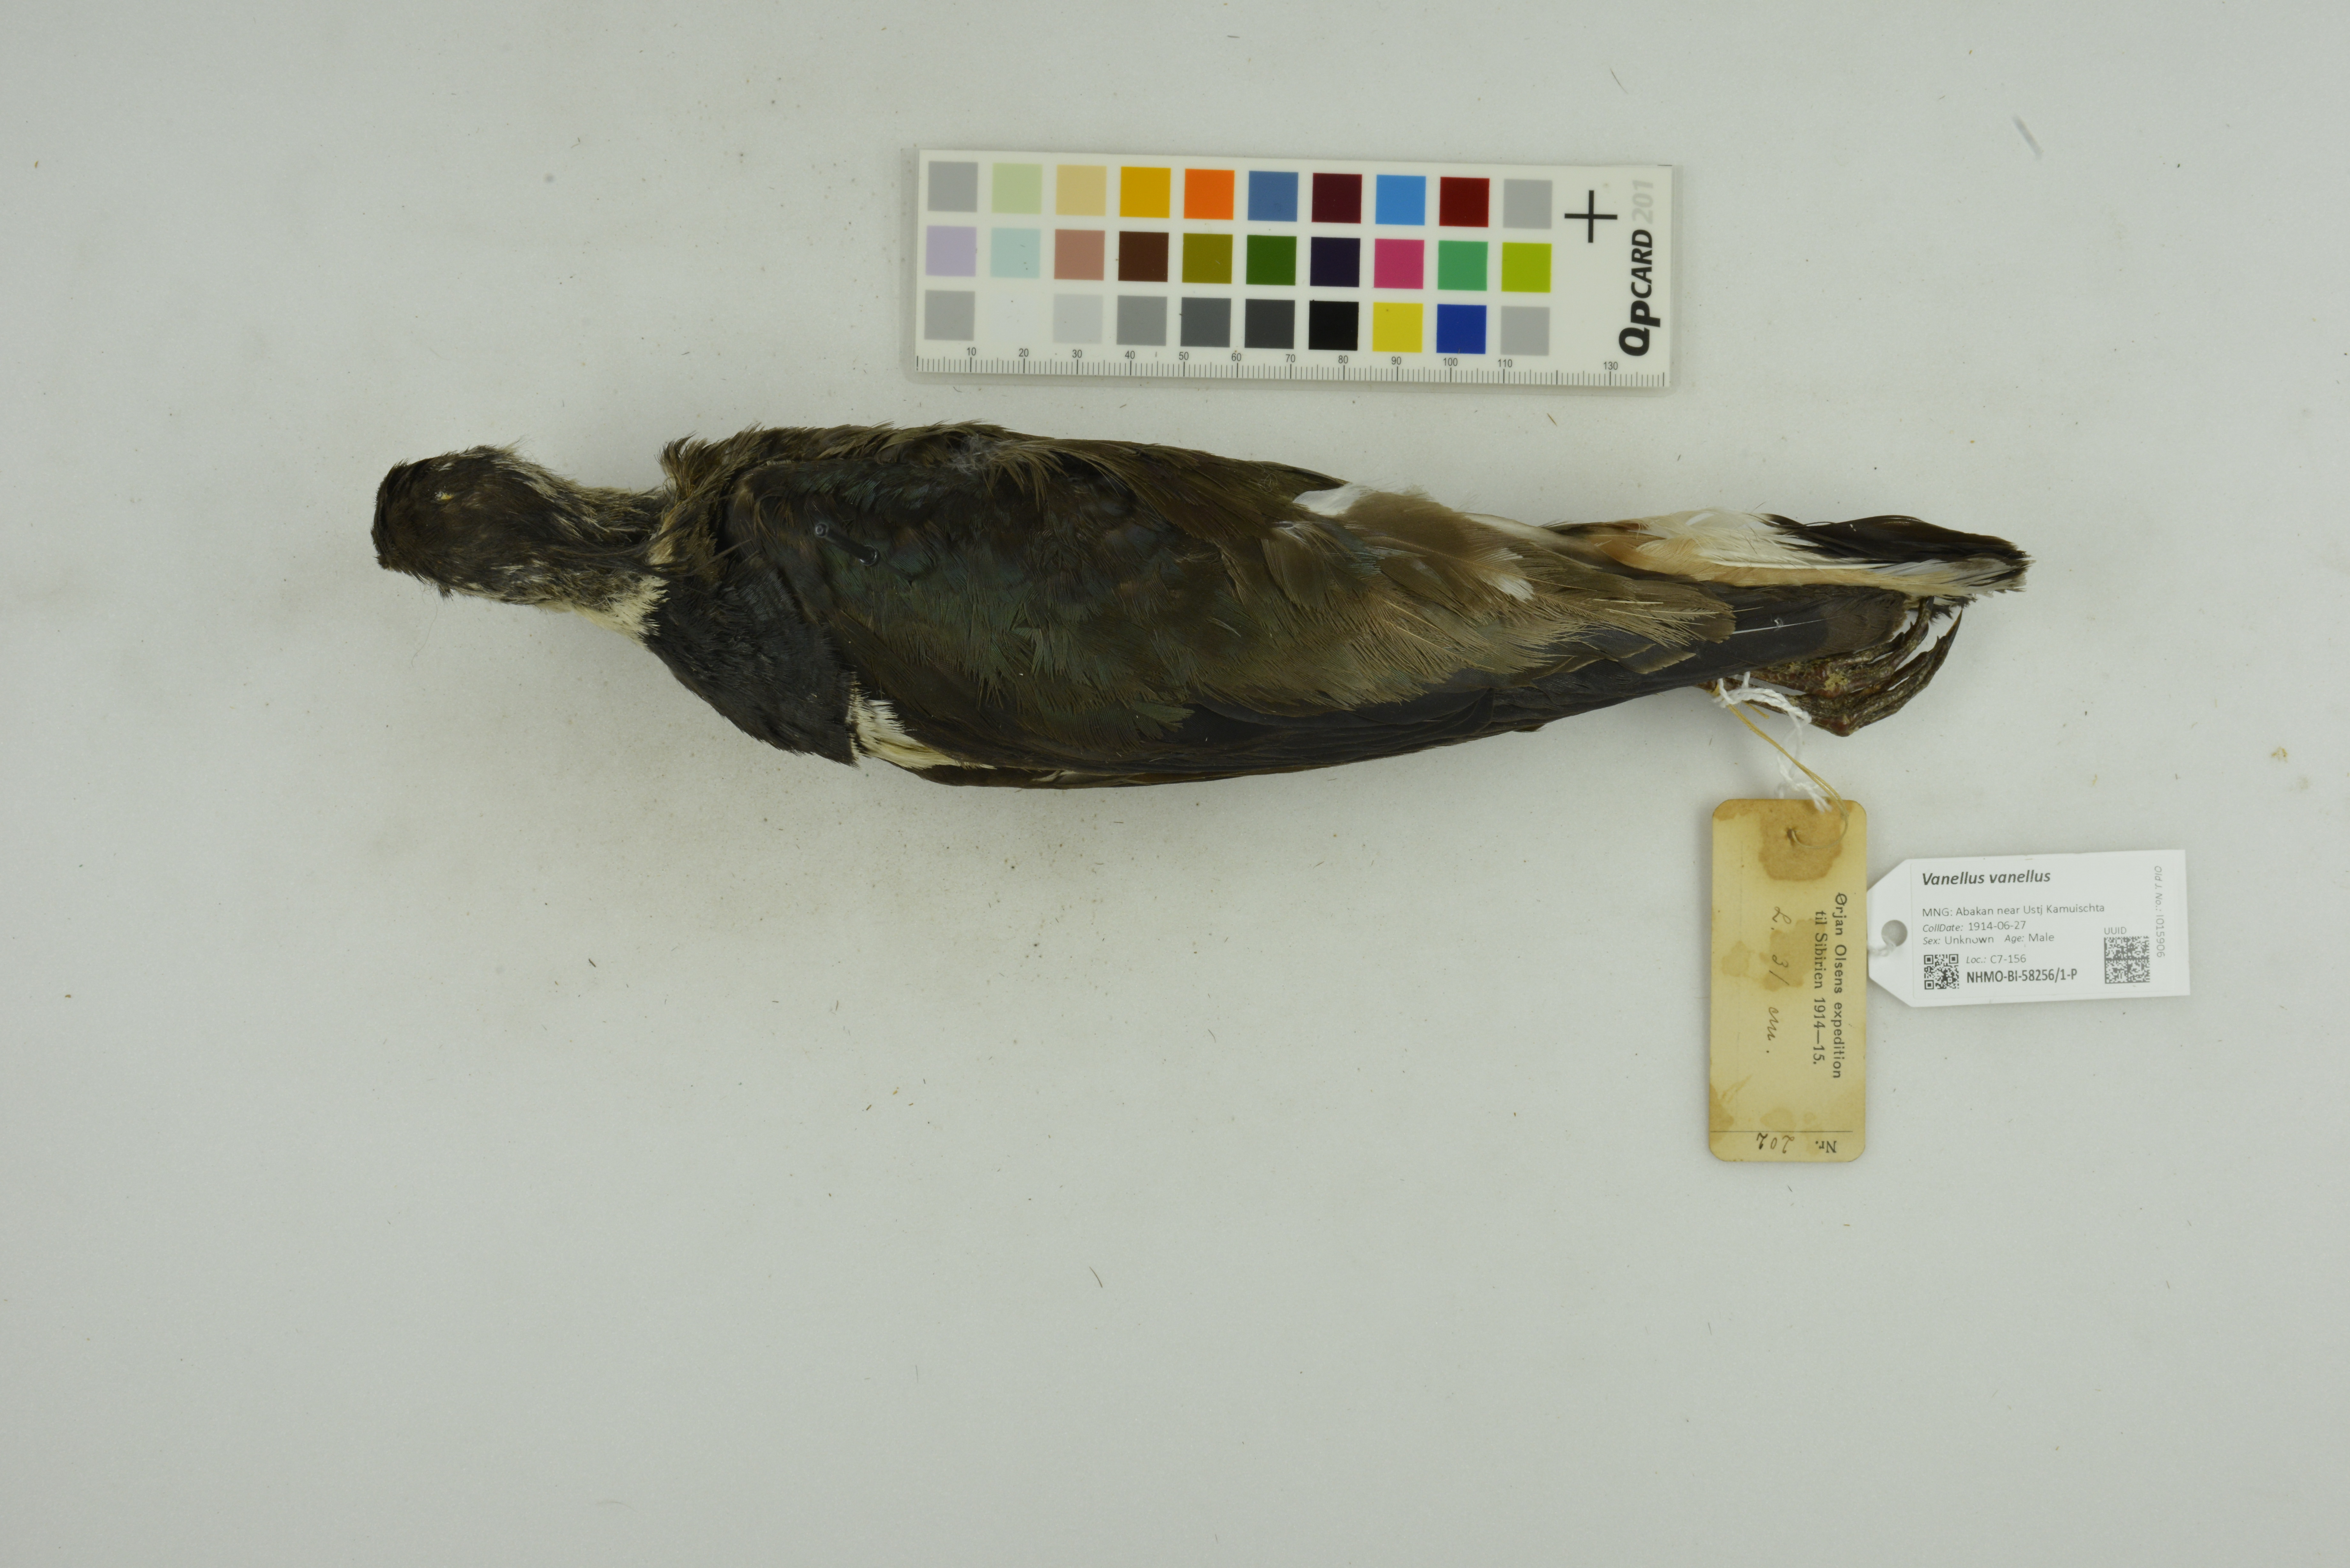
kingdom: Animalia
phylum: Chordata
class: Aves
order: Charadriiformes
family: Charadriidae
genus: Vanellus
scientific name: Vanellus vanellus
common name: Northern lapwing
